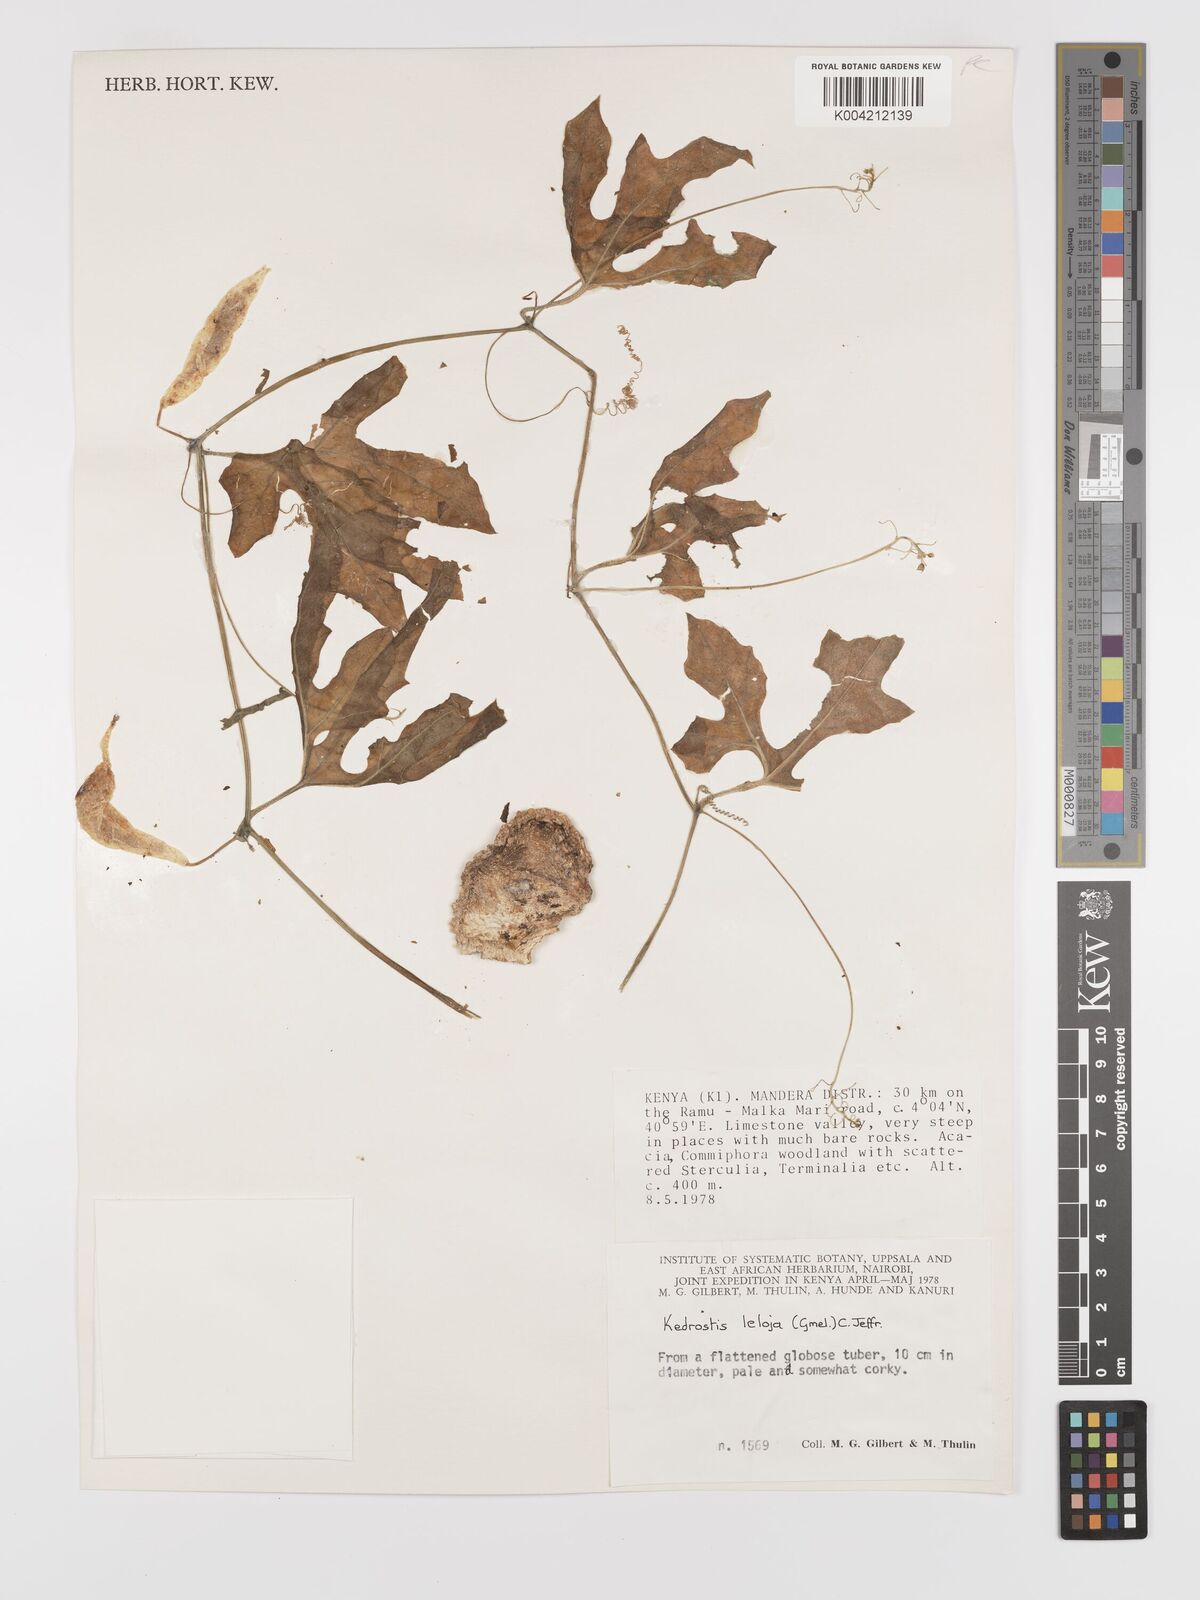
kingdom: Plantae
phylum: Tracheophyta
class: Magnoliopsida
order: Cucurbitales
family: Cucurbitaceae
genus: Kedrostis
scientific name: Kedrostis leloja
